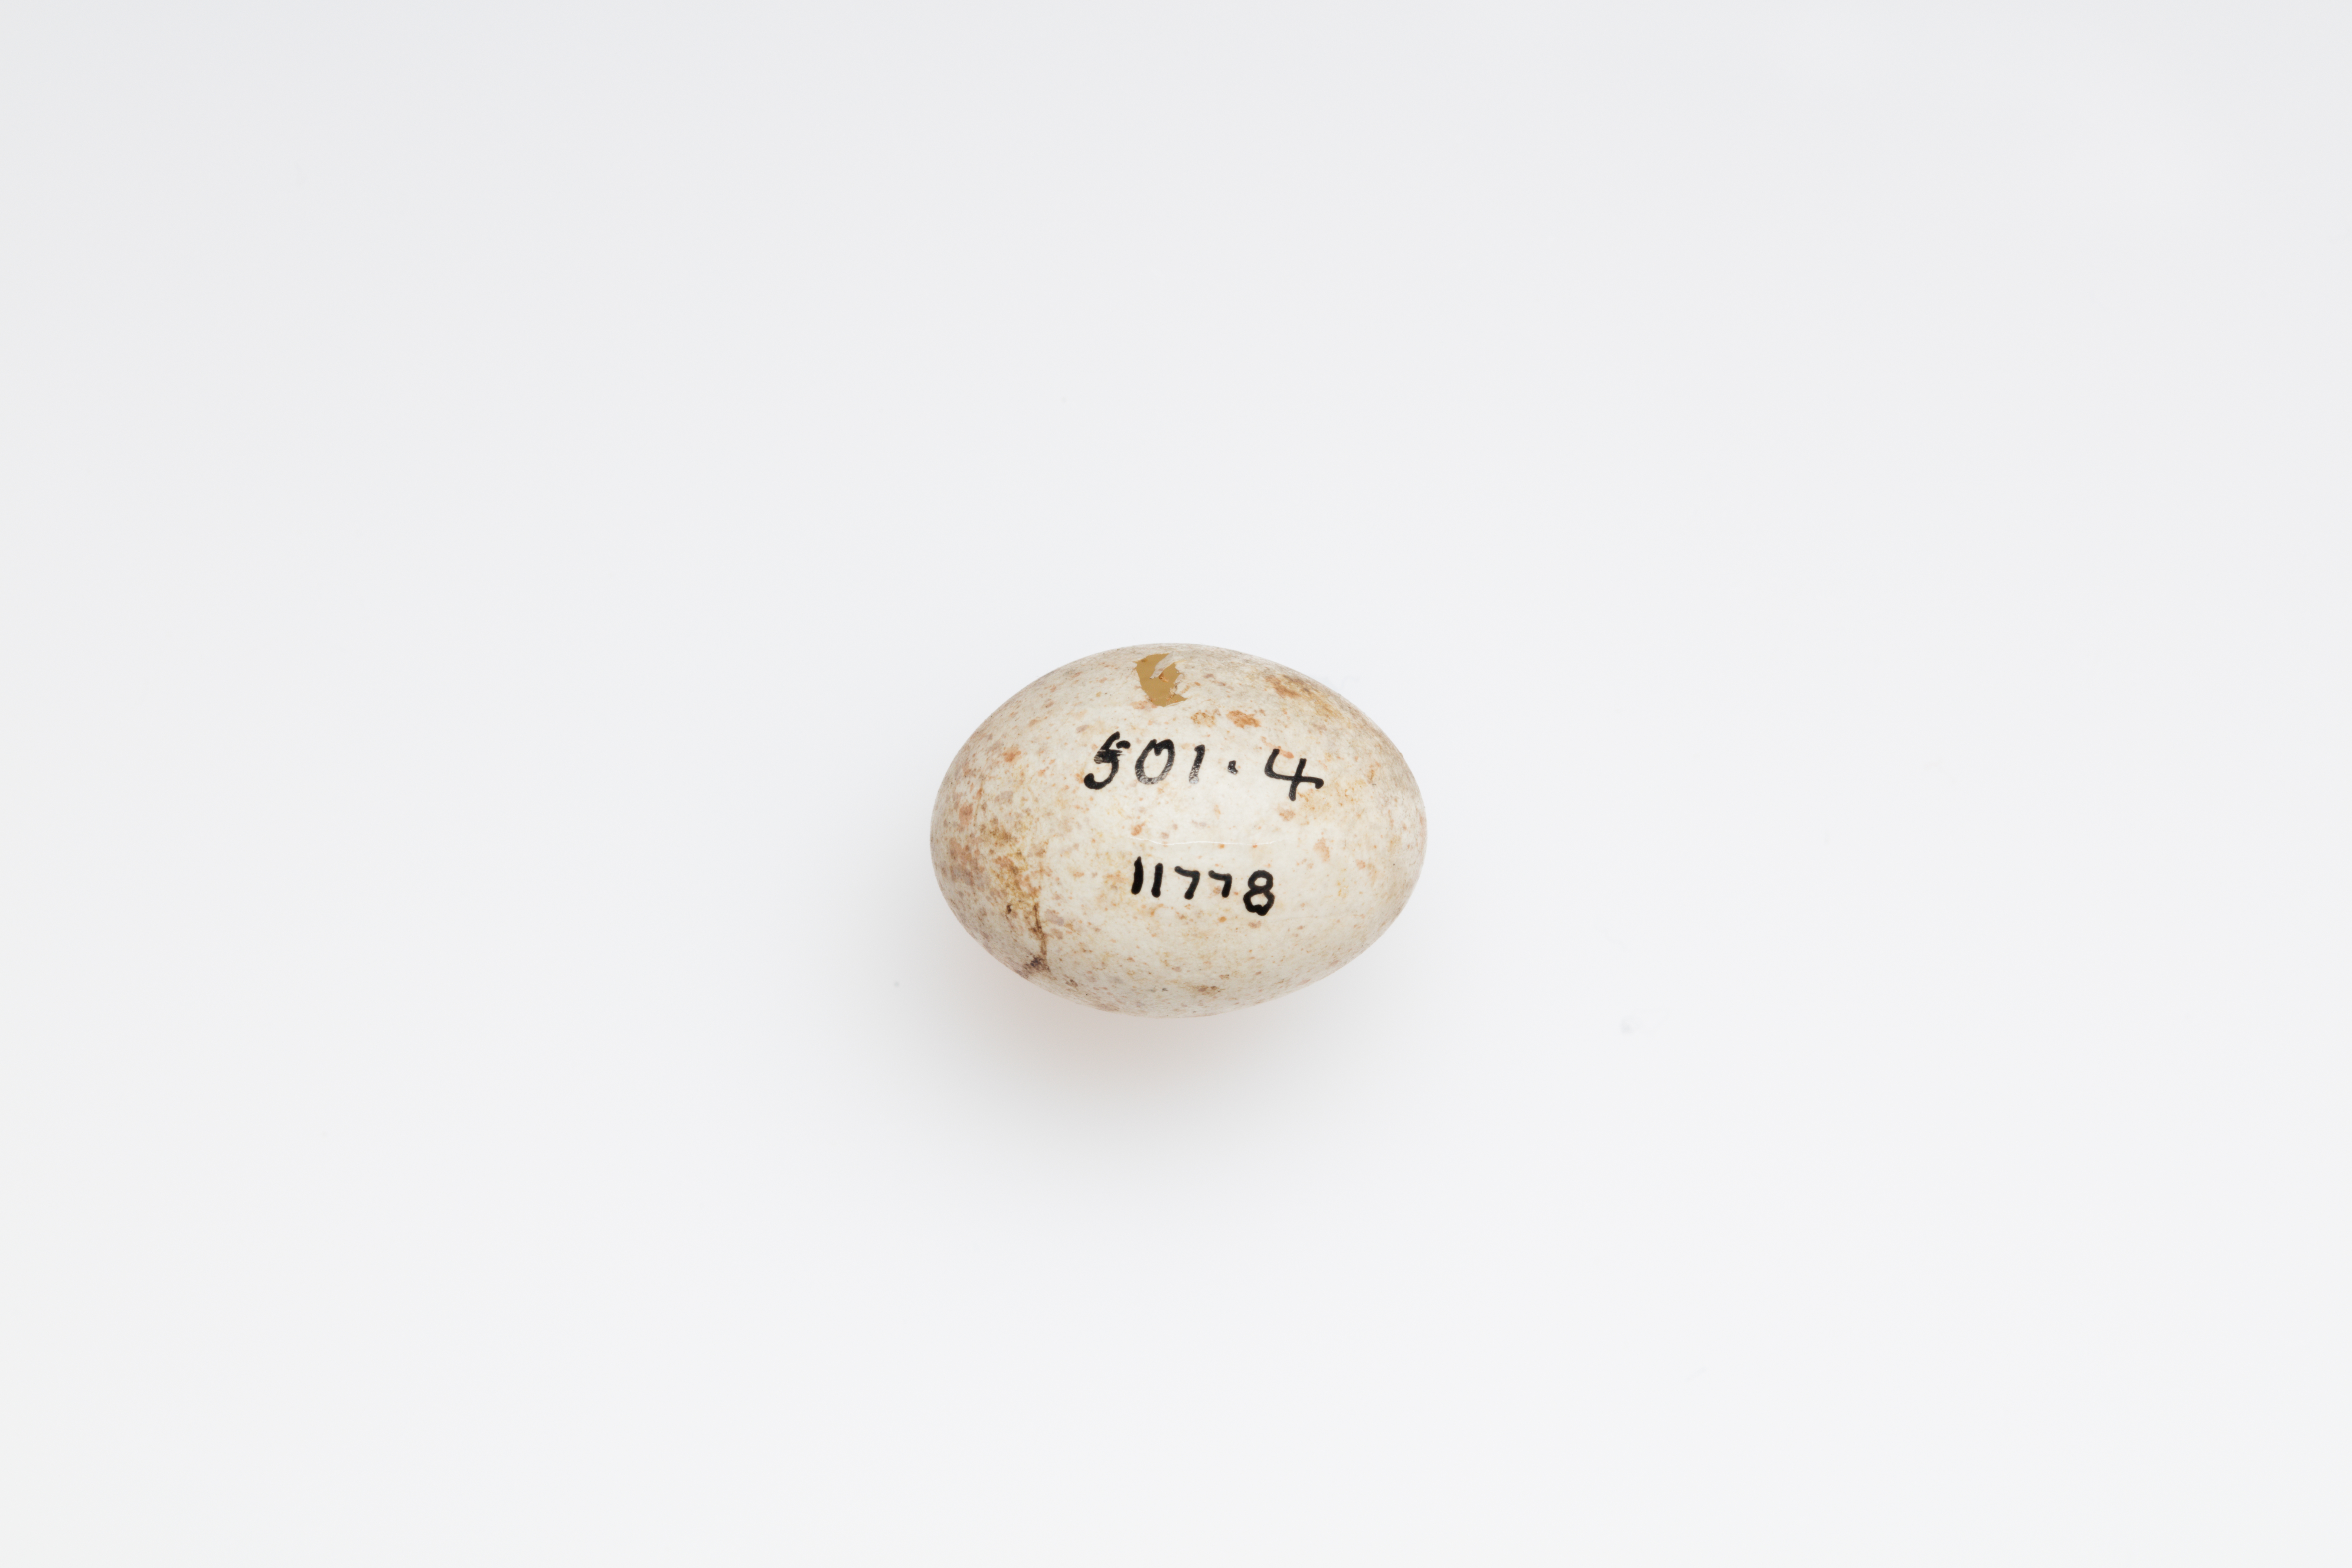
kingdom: Animalia
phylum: Chordata
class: Aves
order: Passeriformes
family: Fringillidae
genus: Coccothraustes
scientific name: Coccothraustes coccothraustes
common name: Hawfinch
